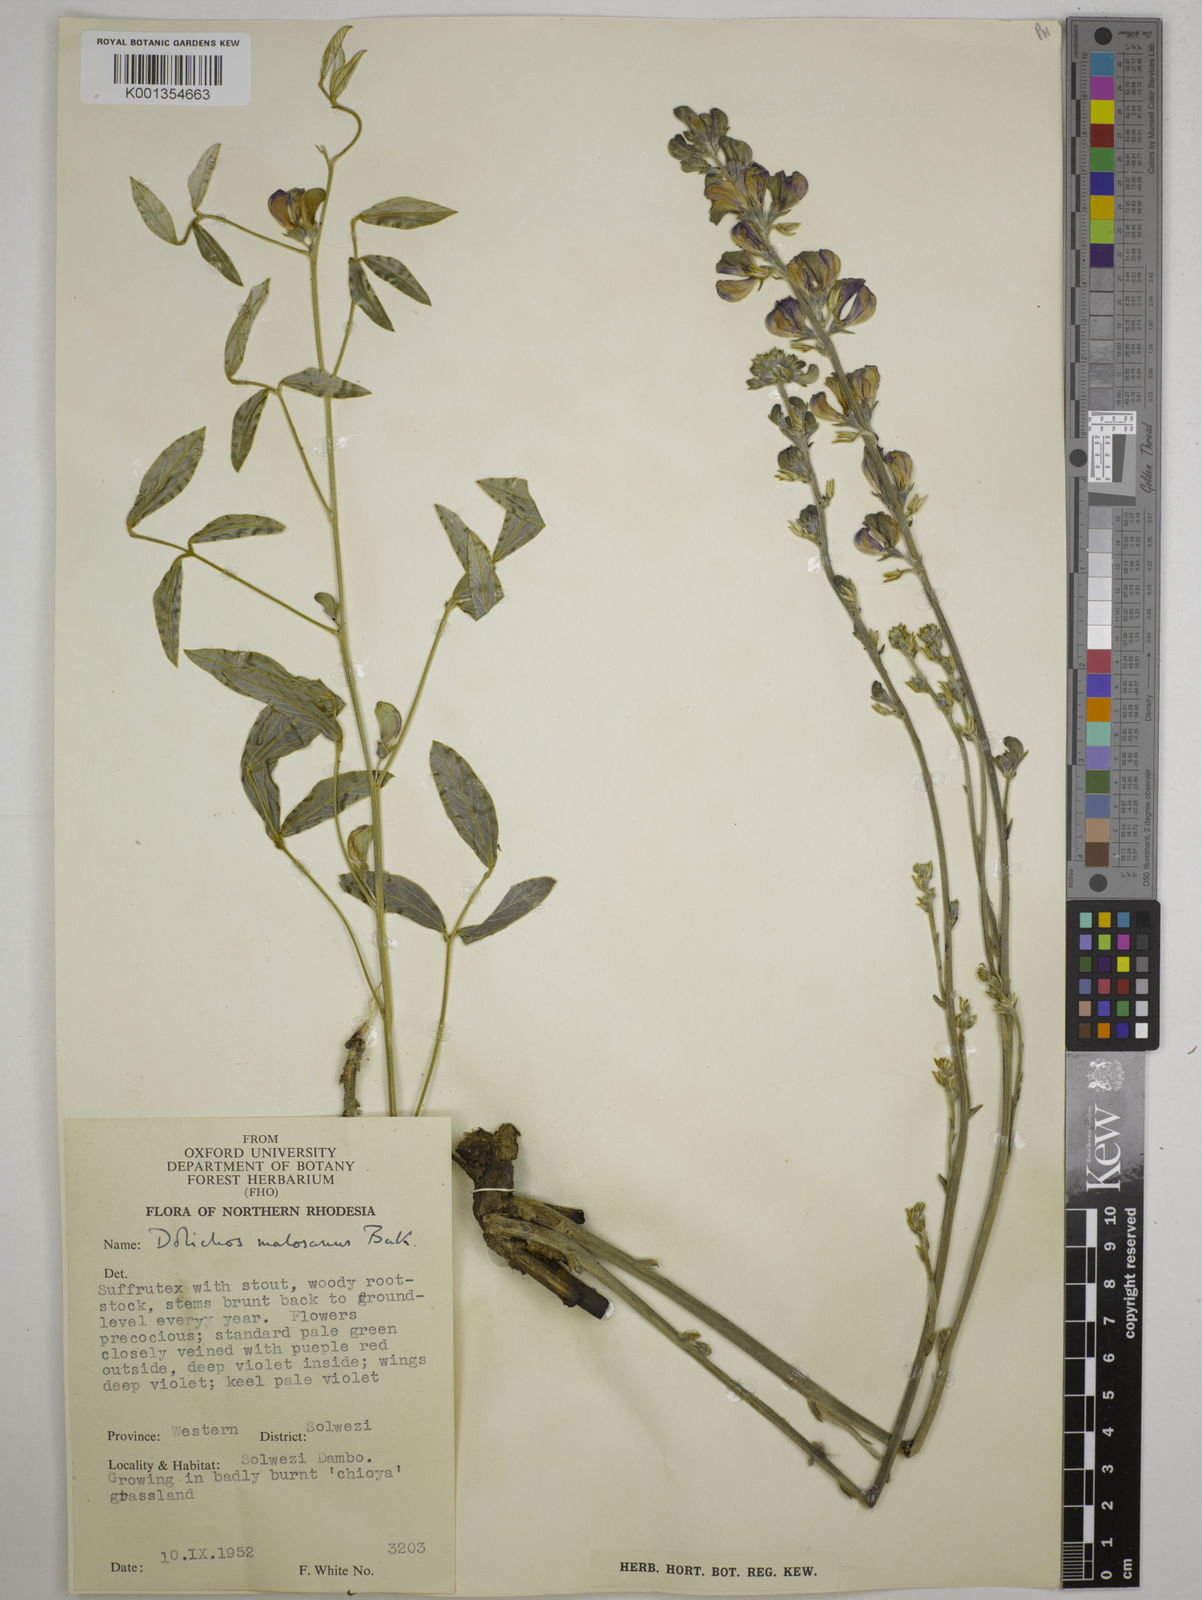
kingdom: Plantae
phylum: Tracheophyta
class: Magnoliopsida
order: Fabales
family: Fabaceae
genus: Dolichos
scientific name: Dolichos kilimandscharicus
